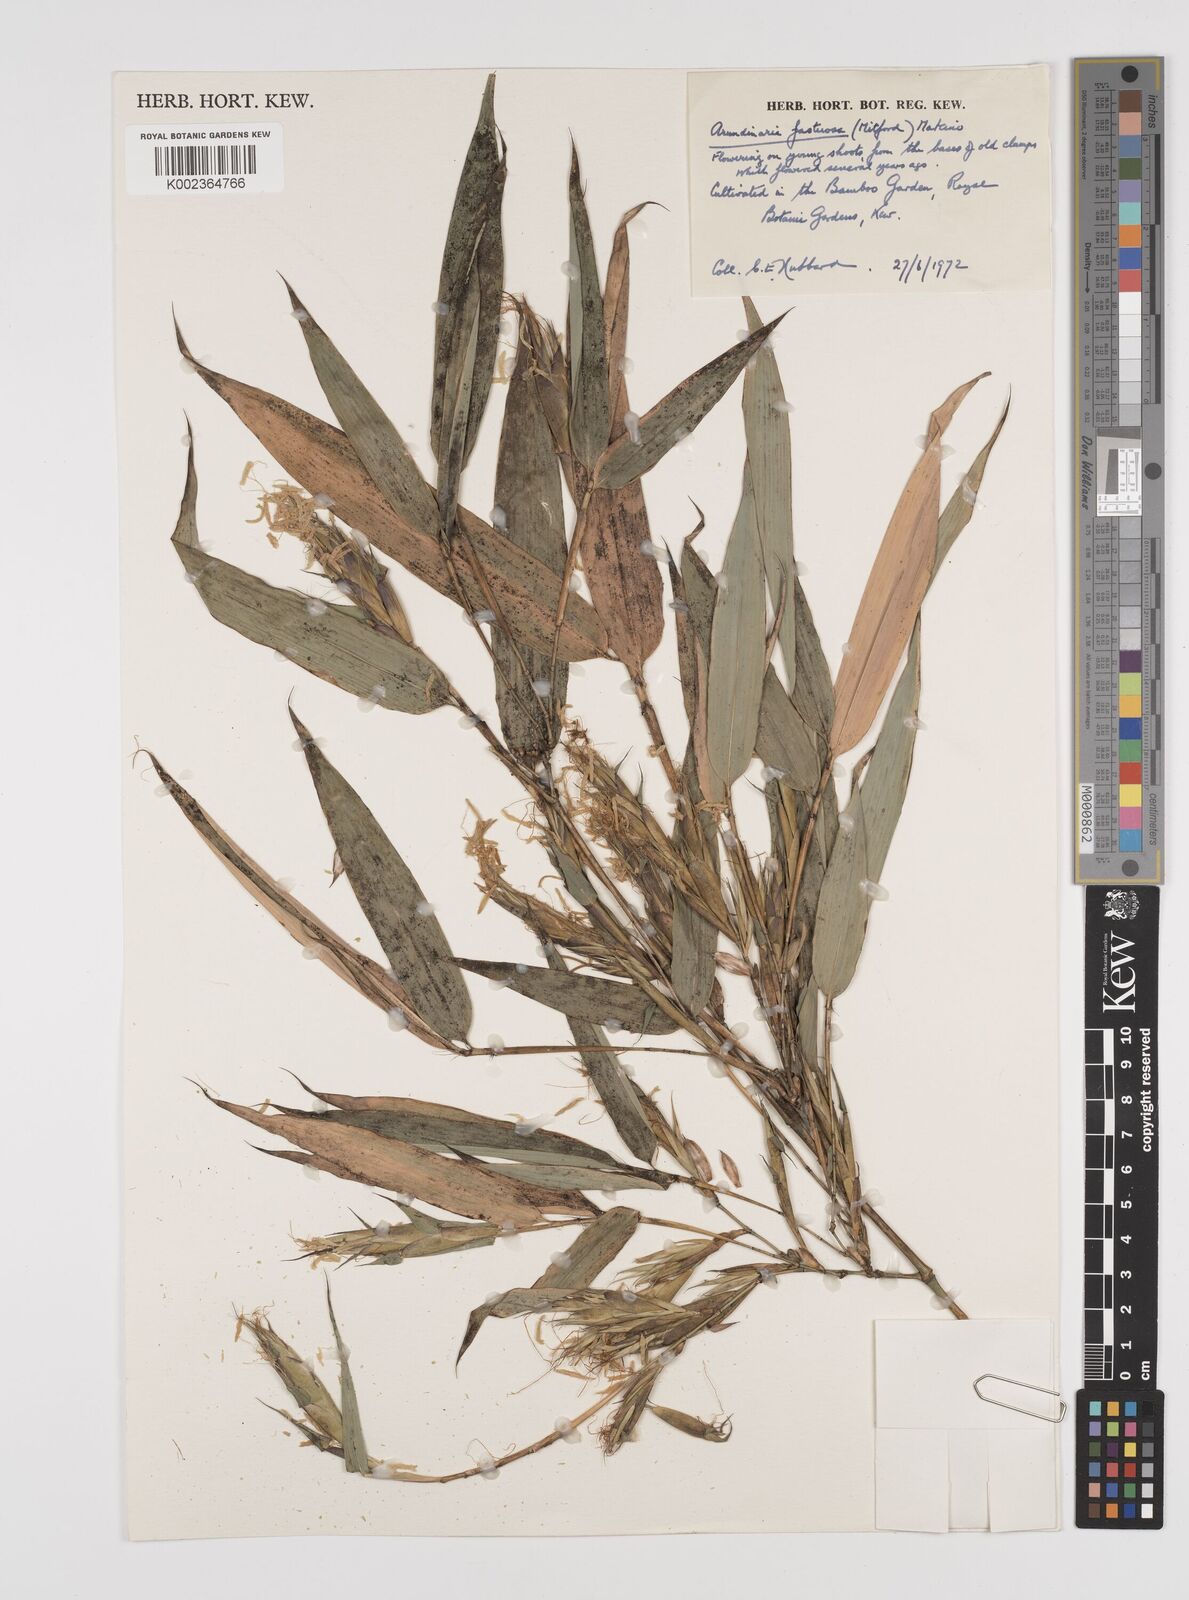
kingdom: Plantae
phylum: Tracheophyta
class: Liliopsida
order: Poales
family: Poaceae
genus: Semiarundinaria
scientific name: Semiarundinaria fastuosa
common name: Narihira bamboo
